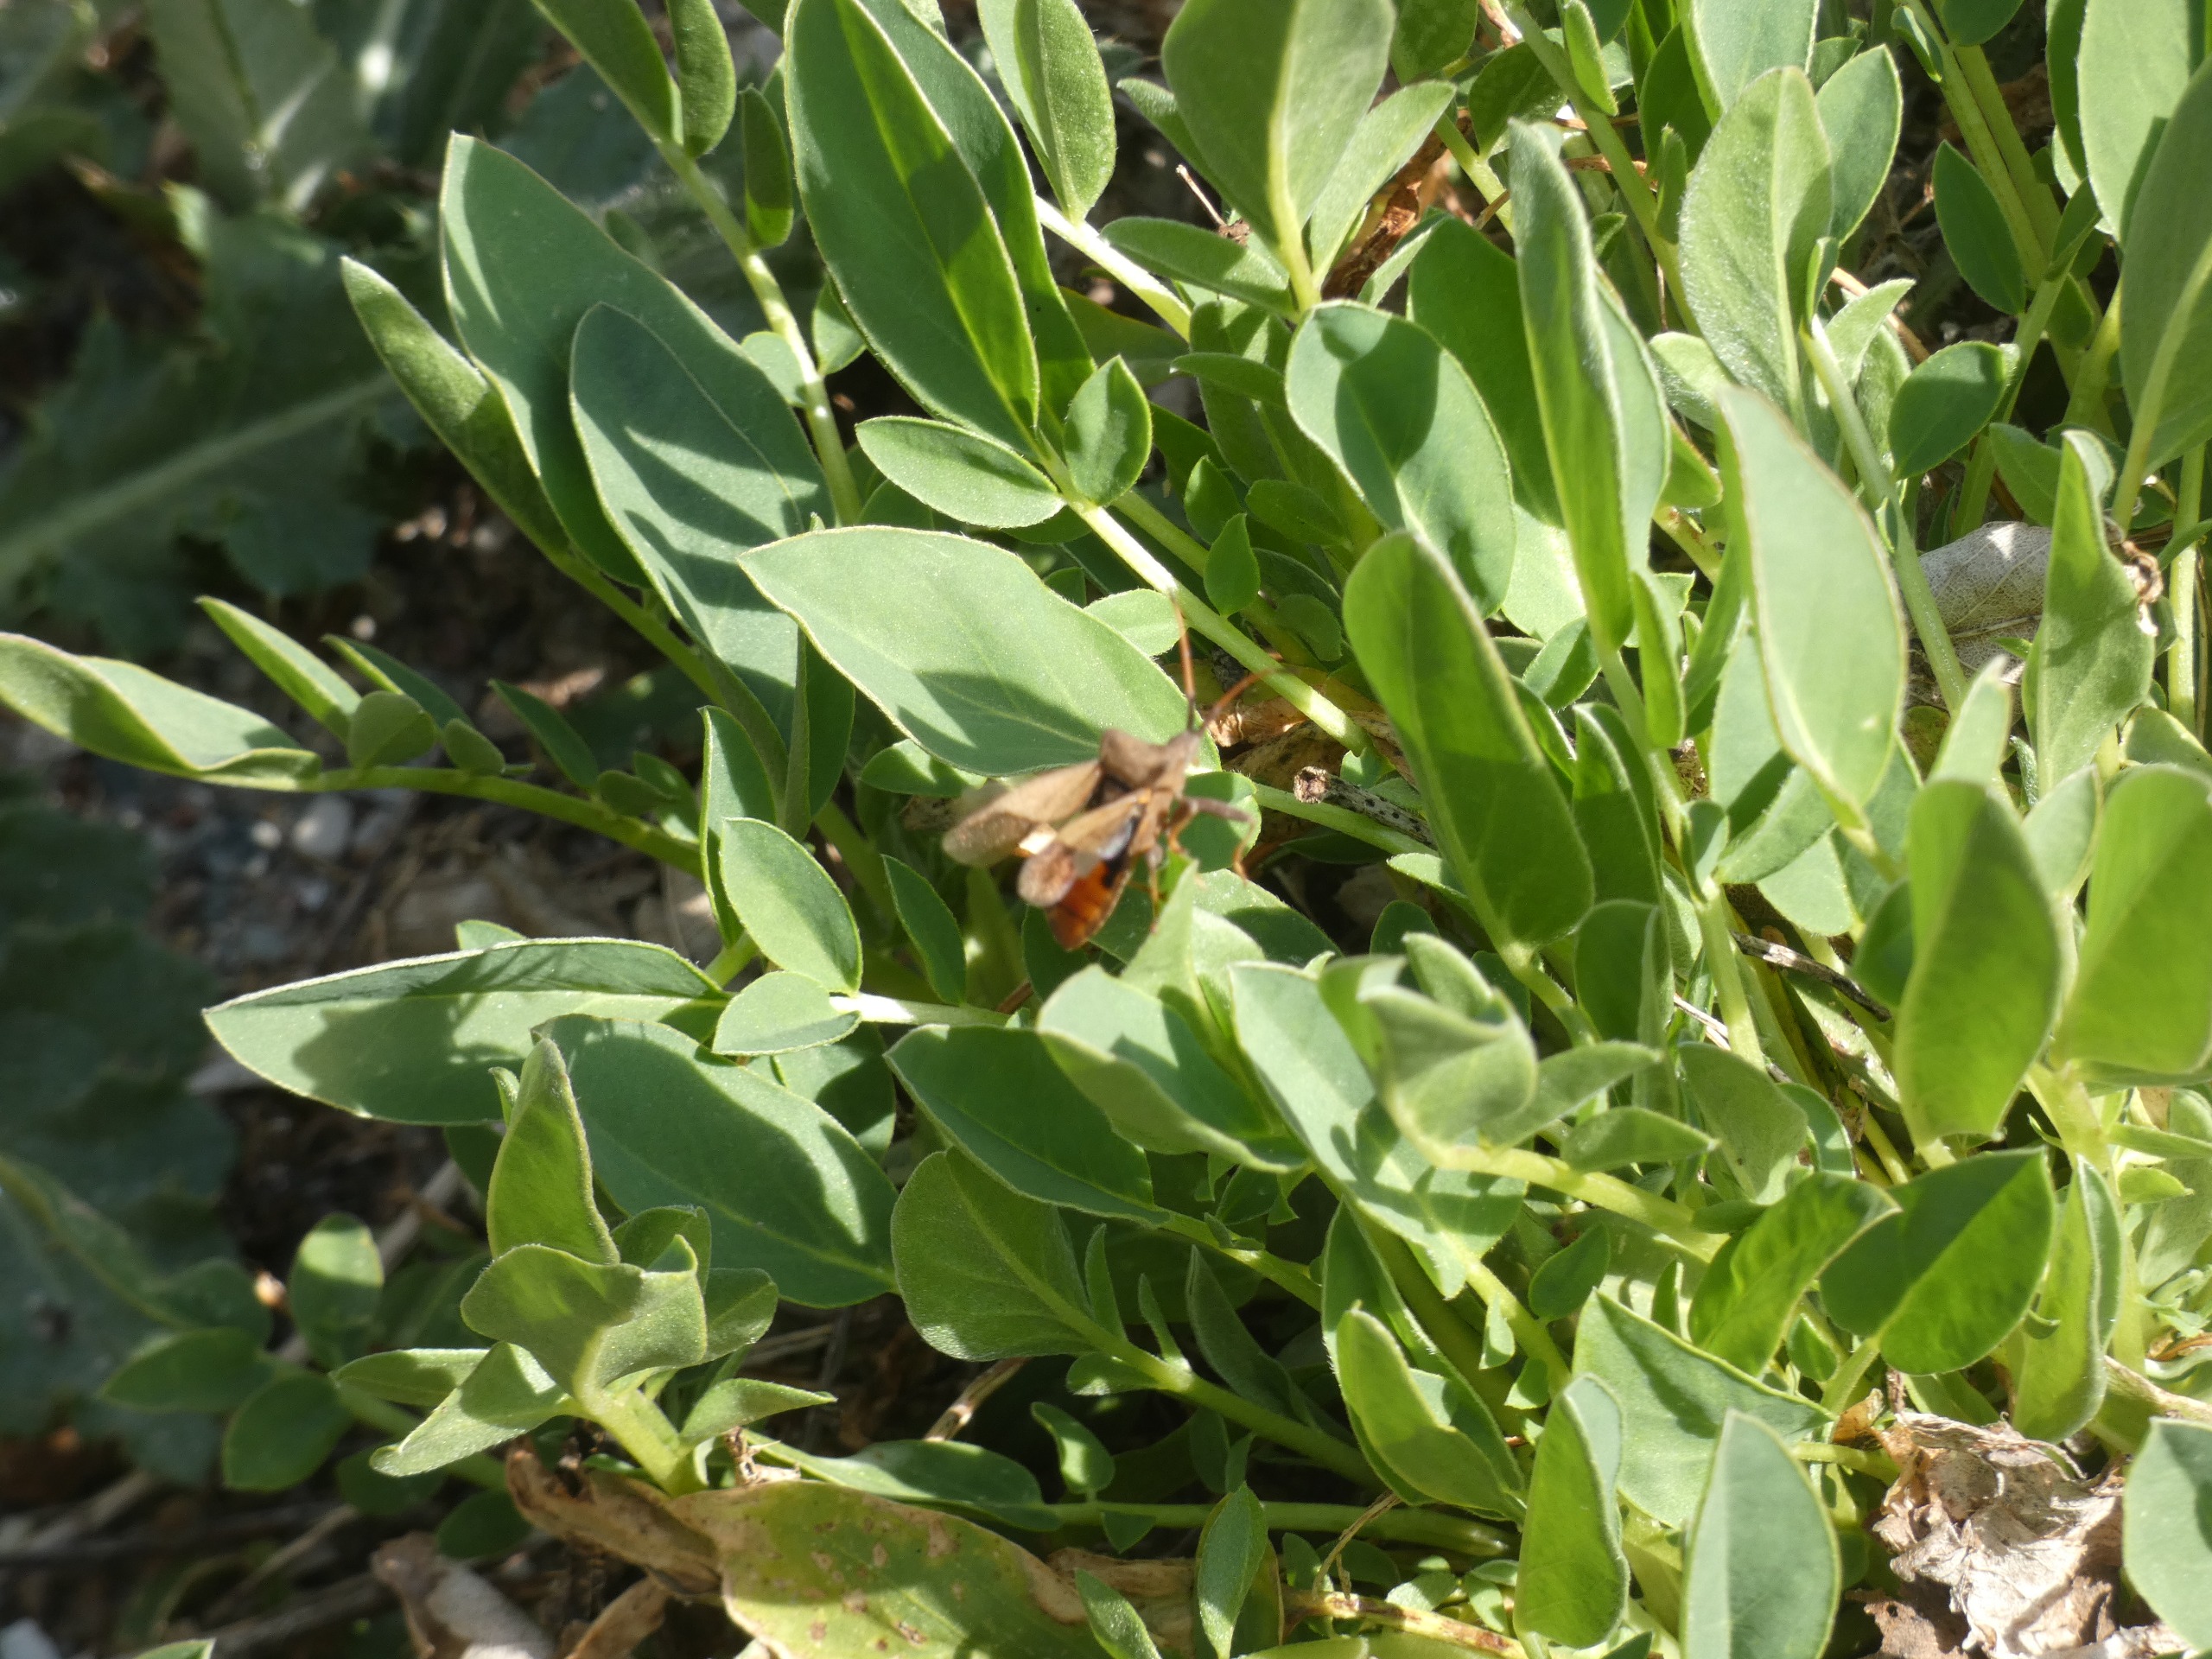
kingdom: Animalia
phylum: Arthropoda
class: Insecta
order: Hemiptera
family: Coreidae
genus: Coreus
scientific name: Coreus marginatus
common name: Skræppetæge
